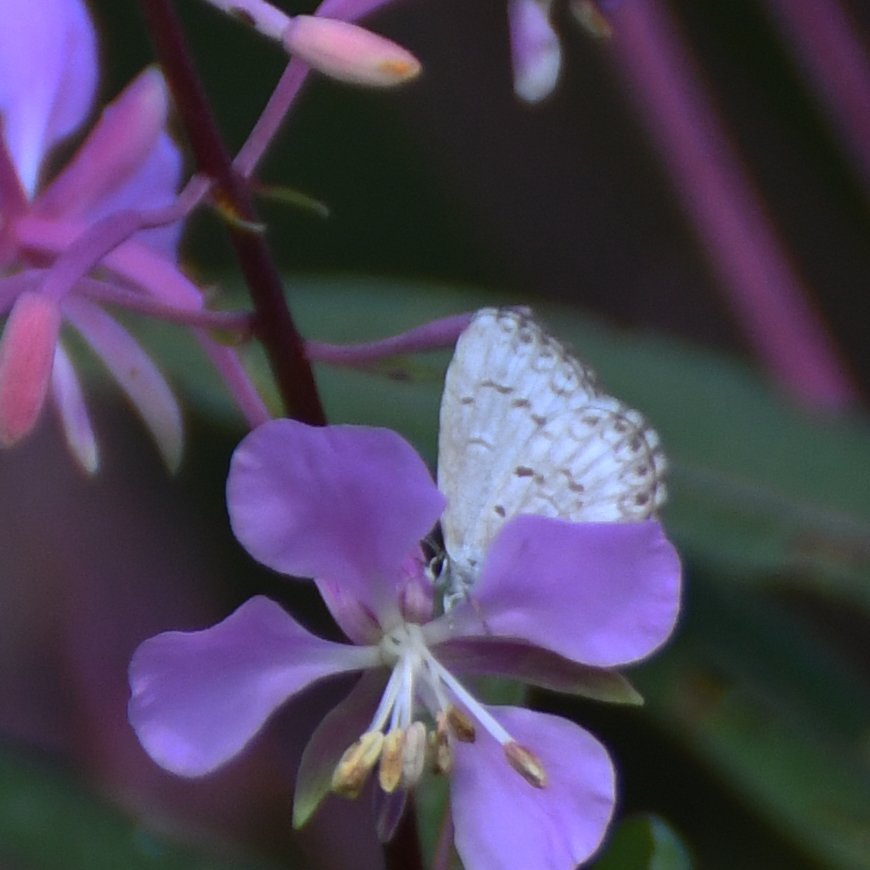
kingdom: Animalia
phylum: Arthropoda
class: Insecta
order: Lepidoptera
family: Lycaenidae
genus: Celastrina
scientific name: Celastrina lucia
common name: Northern Spring Azure
